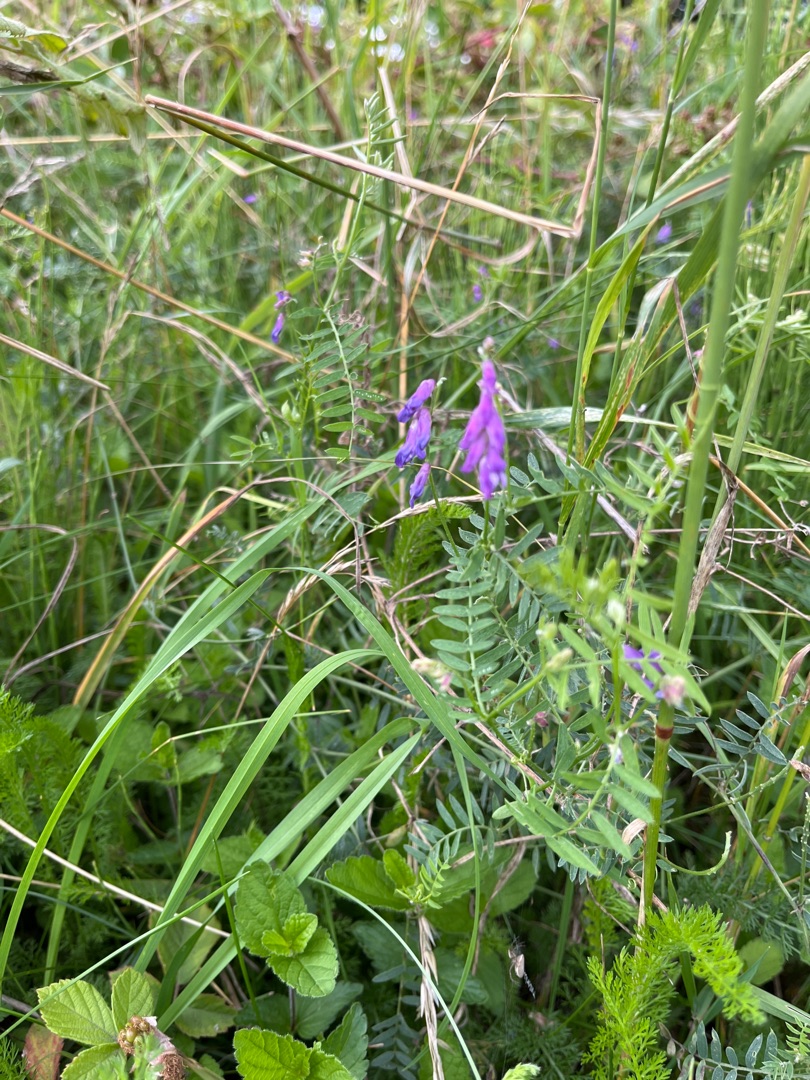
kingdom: Plantae
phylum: Tracheophyta
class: Magnoliopsida
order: Fabales
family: Fabaceae
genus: Vicia
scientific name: Vicia cracca
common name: Muse-vikke
